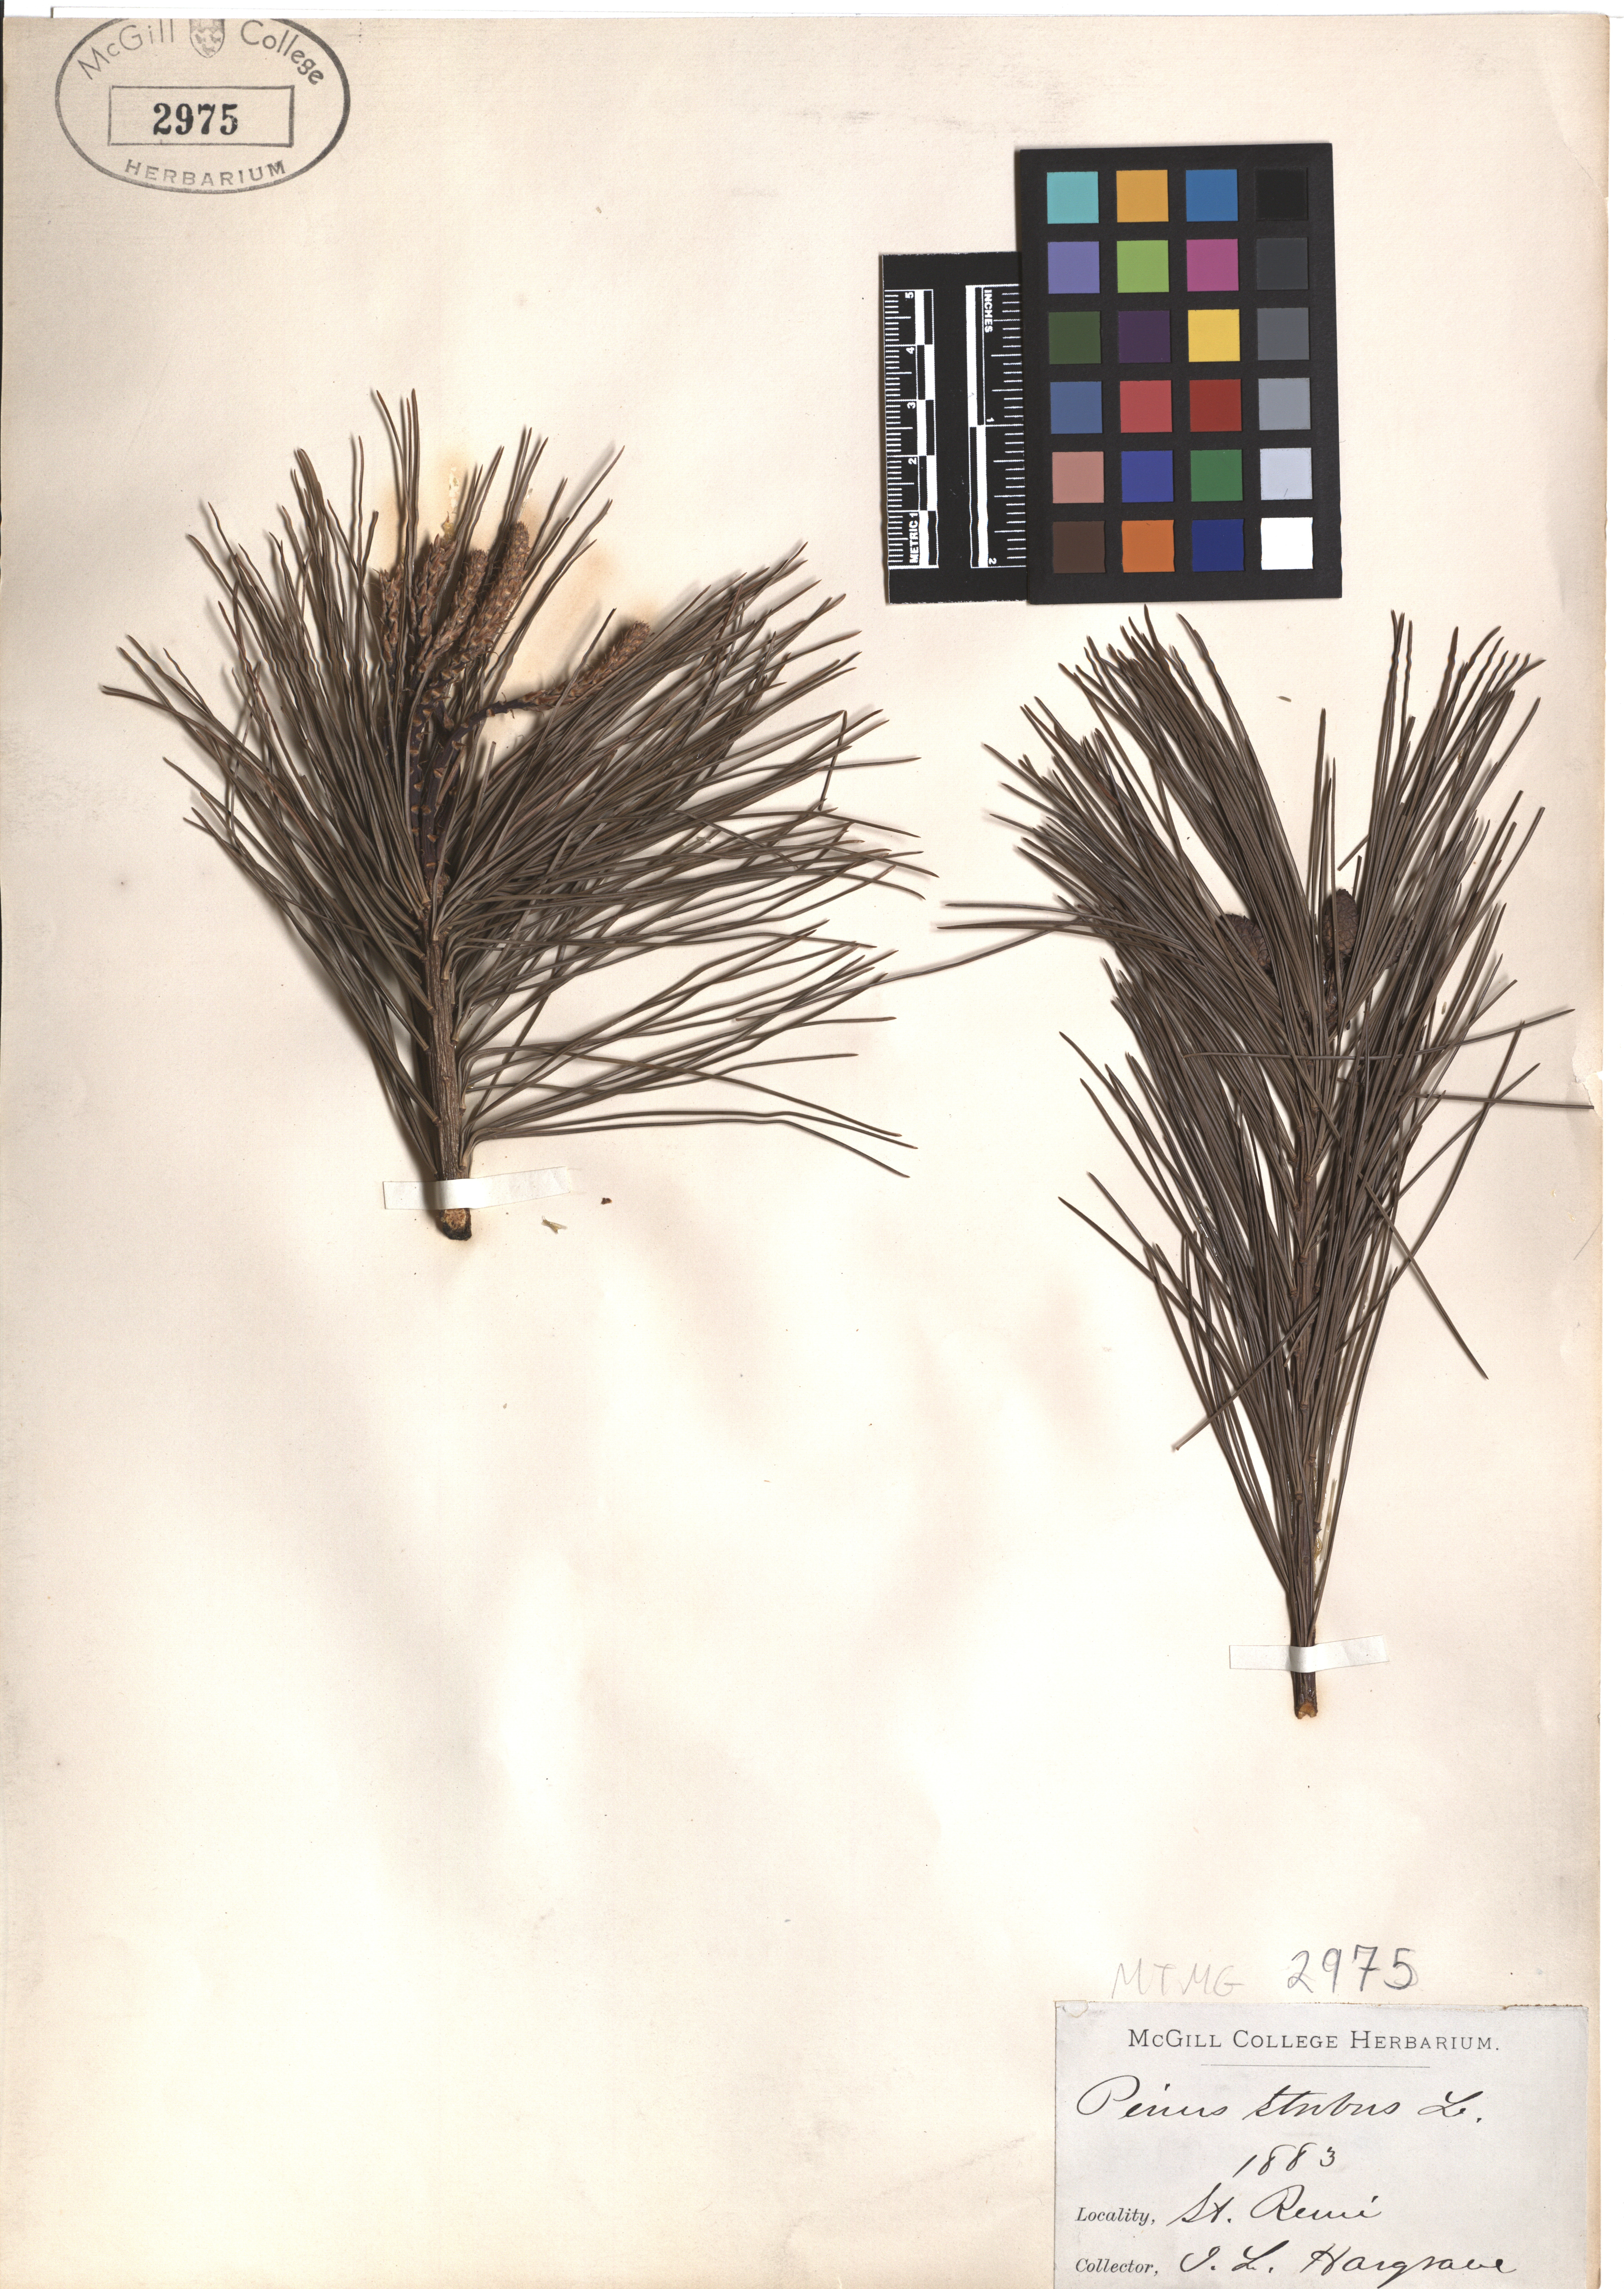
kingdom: Plantae
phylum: Tracheophyta
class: Pinopsida
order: Pinales
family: Pinaceae
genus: Pinus
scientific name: Pinus strobus
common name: Weymouth pine
